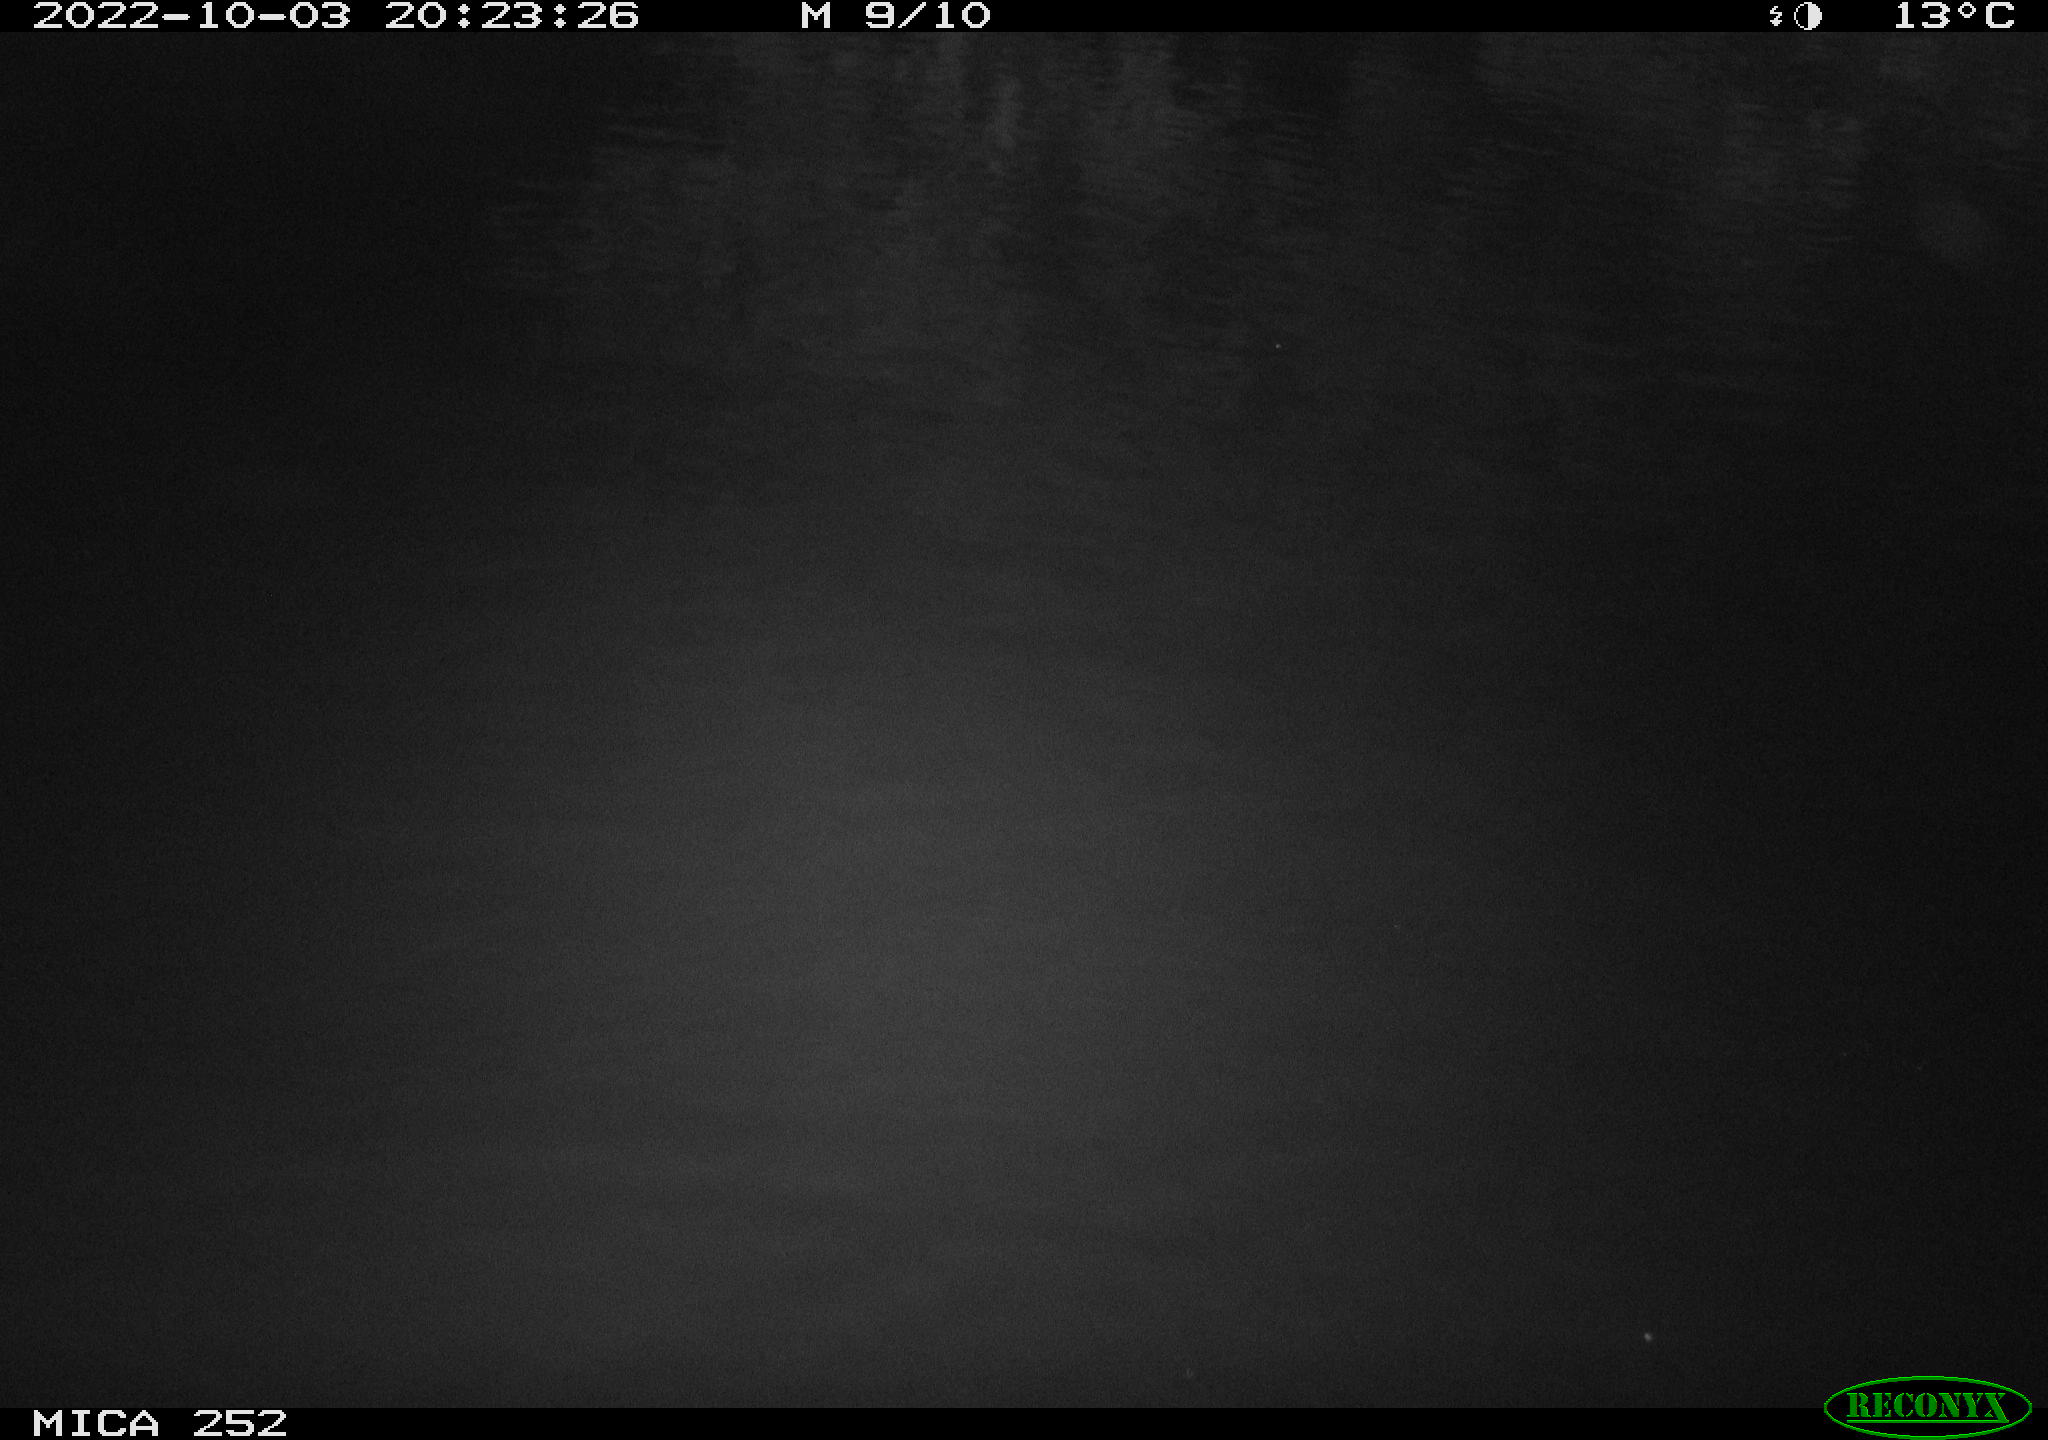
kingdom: Animalia
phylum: Chordata
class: Mammalia
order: Rodentia
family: Castoridae
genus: Castor
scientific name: Castor fiber
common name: Eurasian beaver
